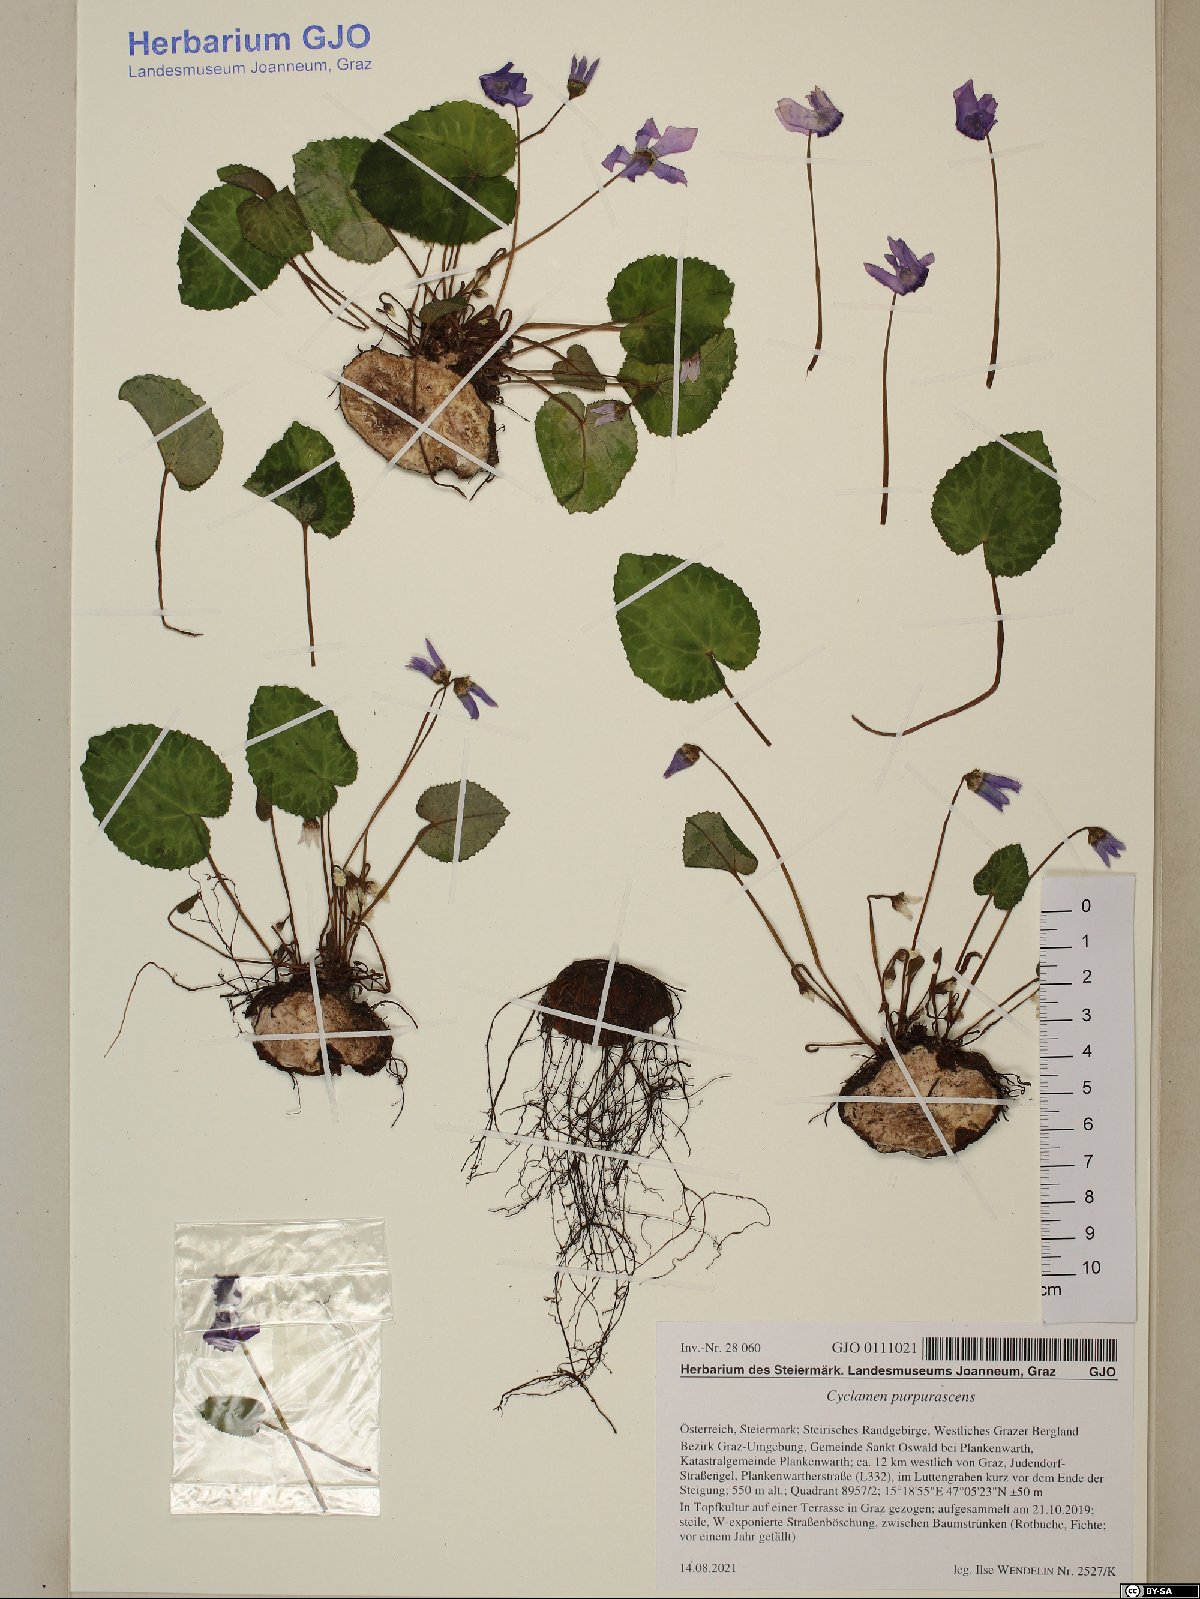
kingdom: Plantae
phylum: Tracheophyta
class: Magnoliopsida
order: Ericales
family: Primulaceae
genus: Cyclamen
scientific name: Cyclamen purpurascens
